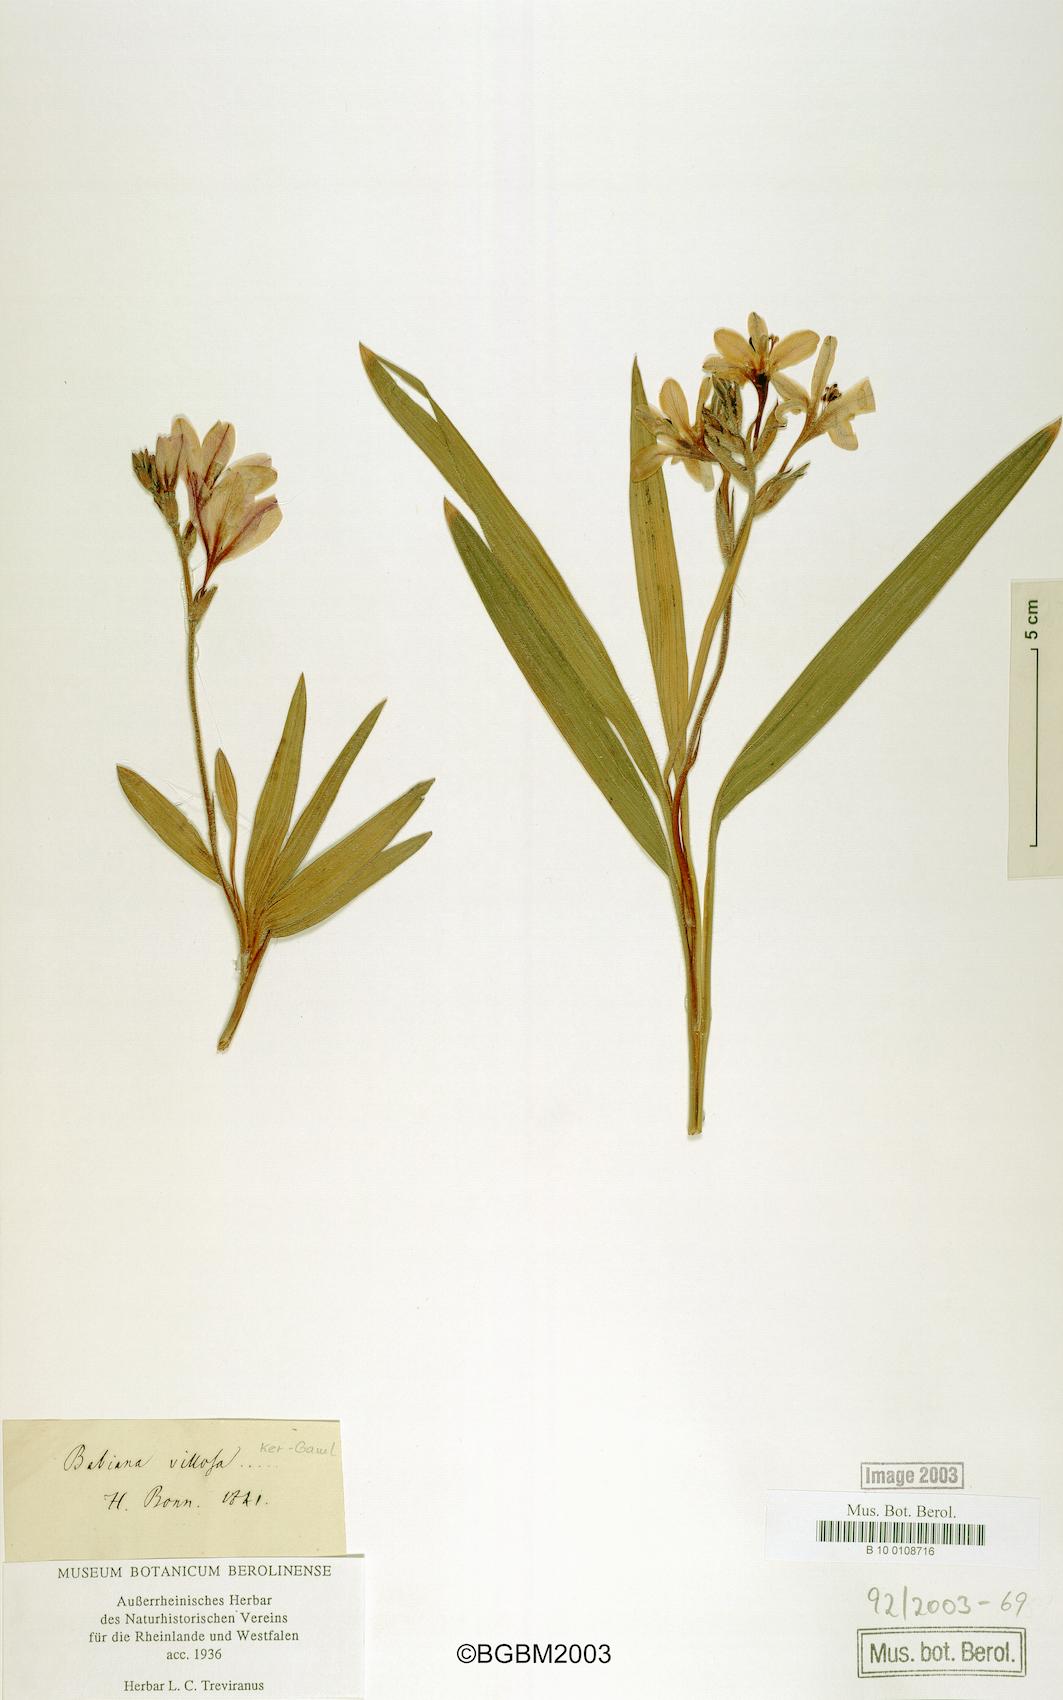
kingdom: Plantae
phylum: Tracheophyta
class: Liliopsida
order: Asparagales
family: Iridaceae
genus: Babiana
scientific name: Babiana villosa
